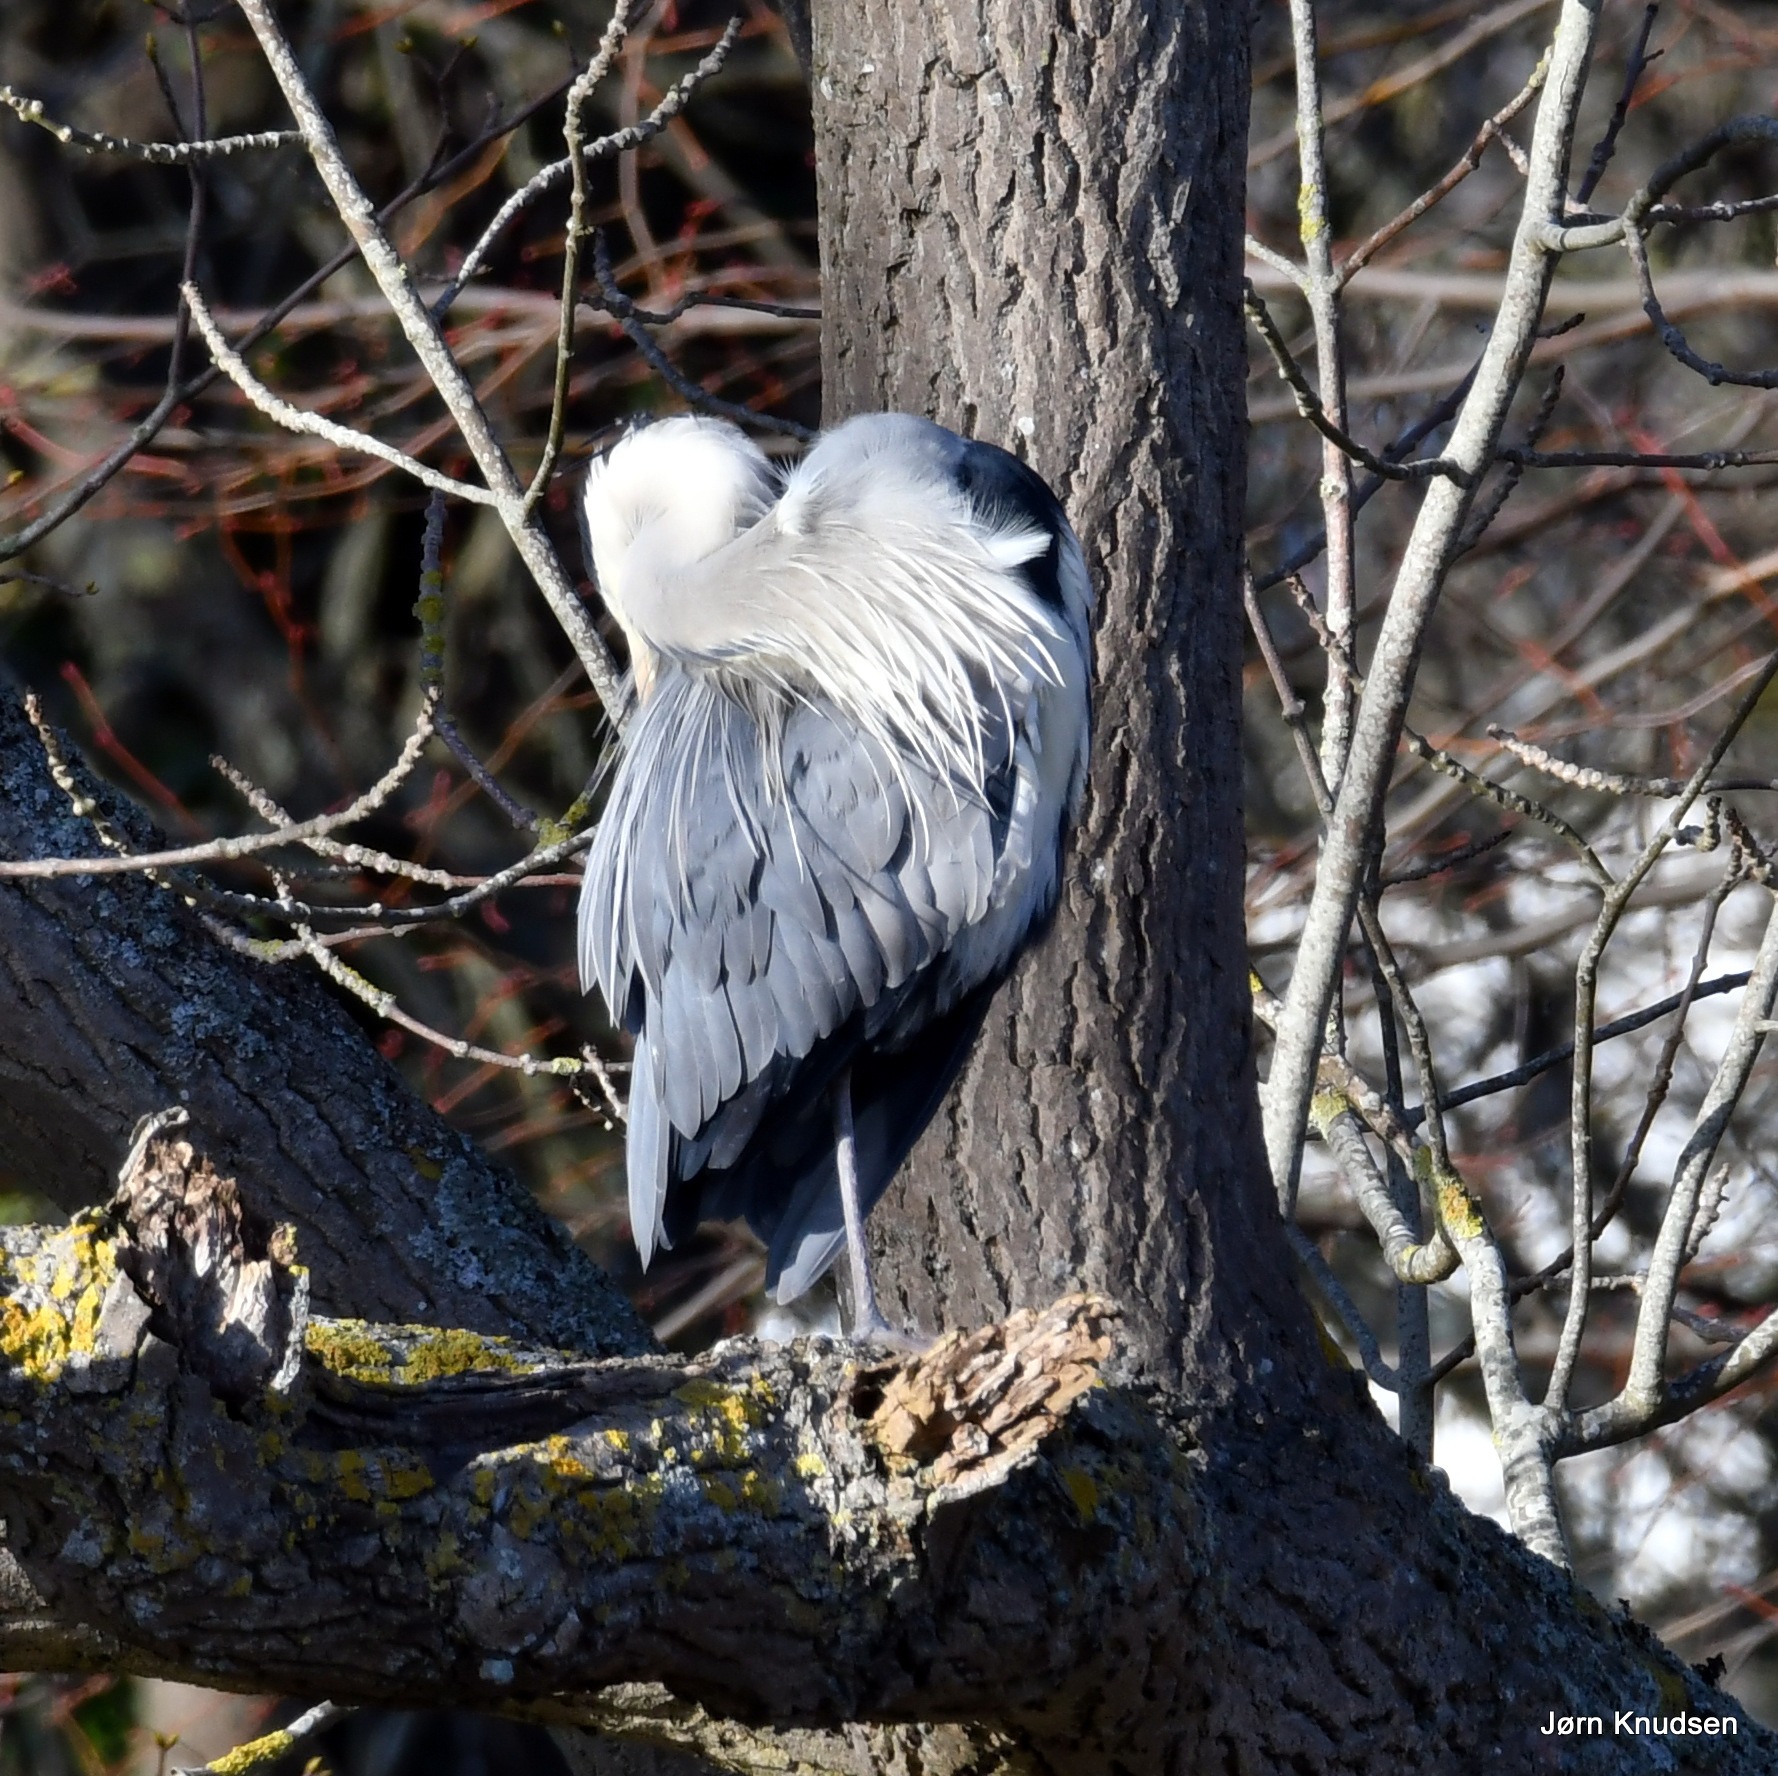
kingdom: Animalia
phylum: Chordata
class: Aves
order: Pelecaniformes
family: Ardeidae
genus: Ardea
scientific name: Ardea cinerea
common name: Fiskehejre
